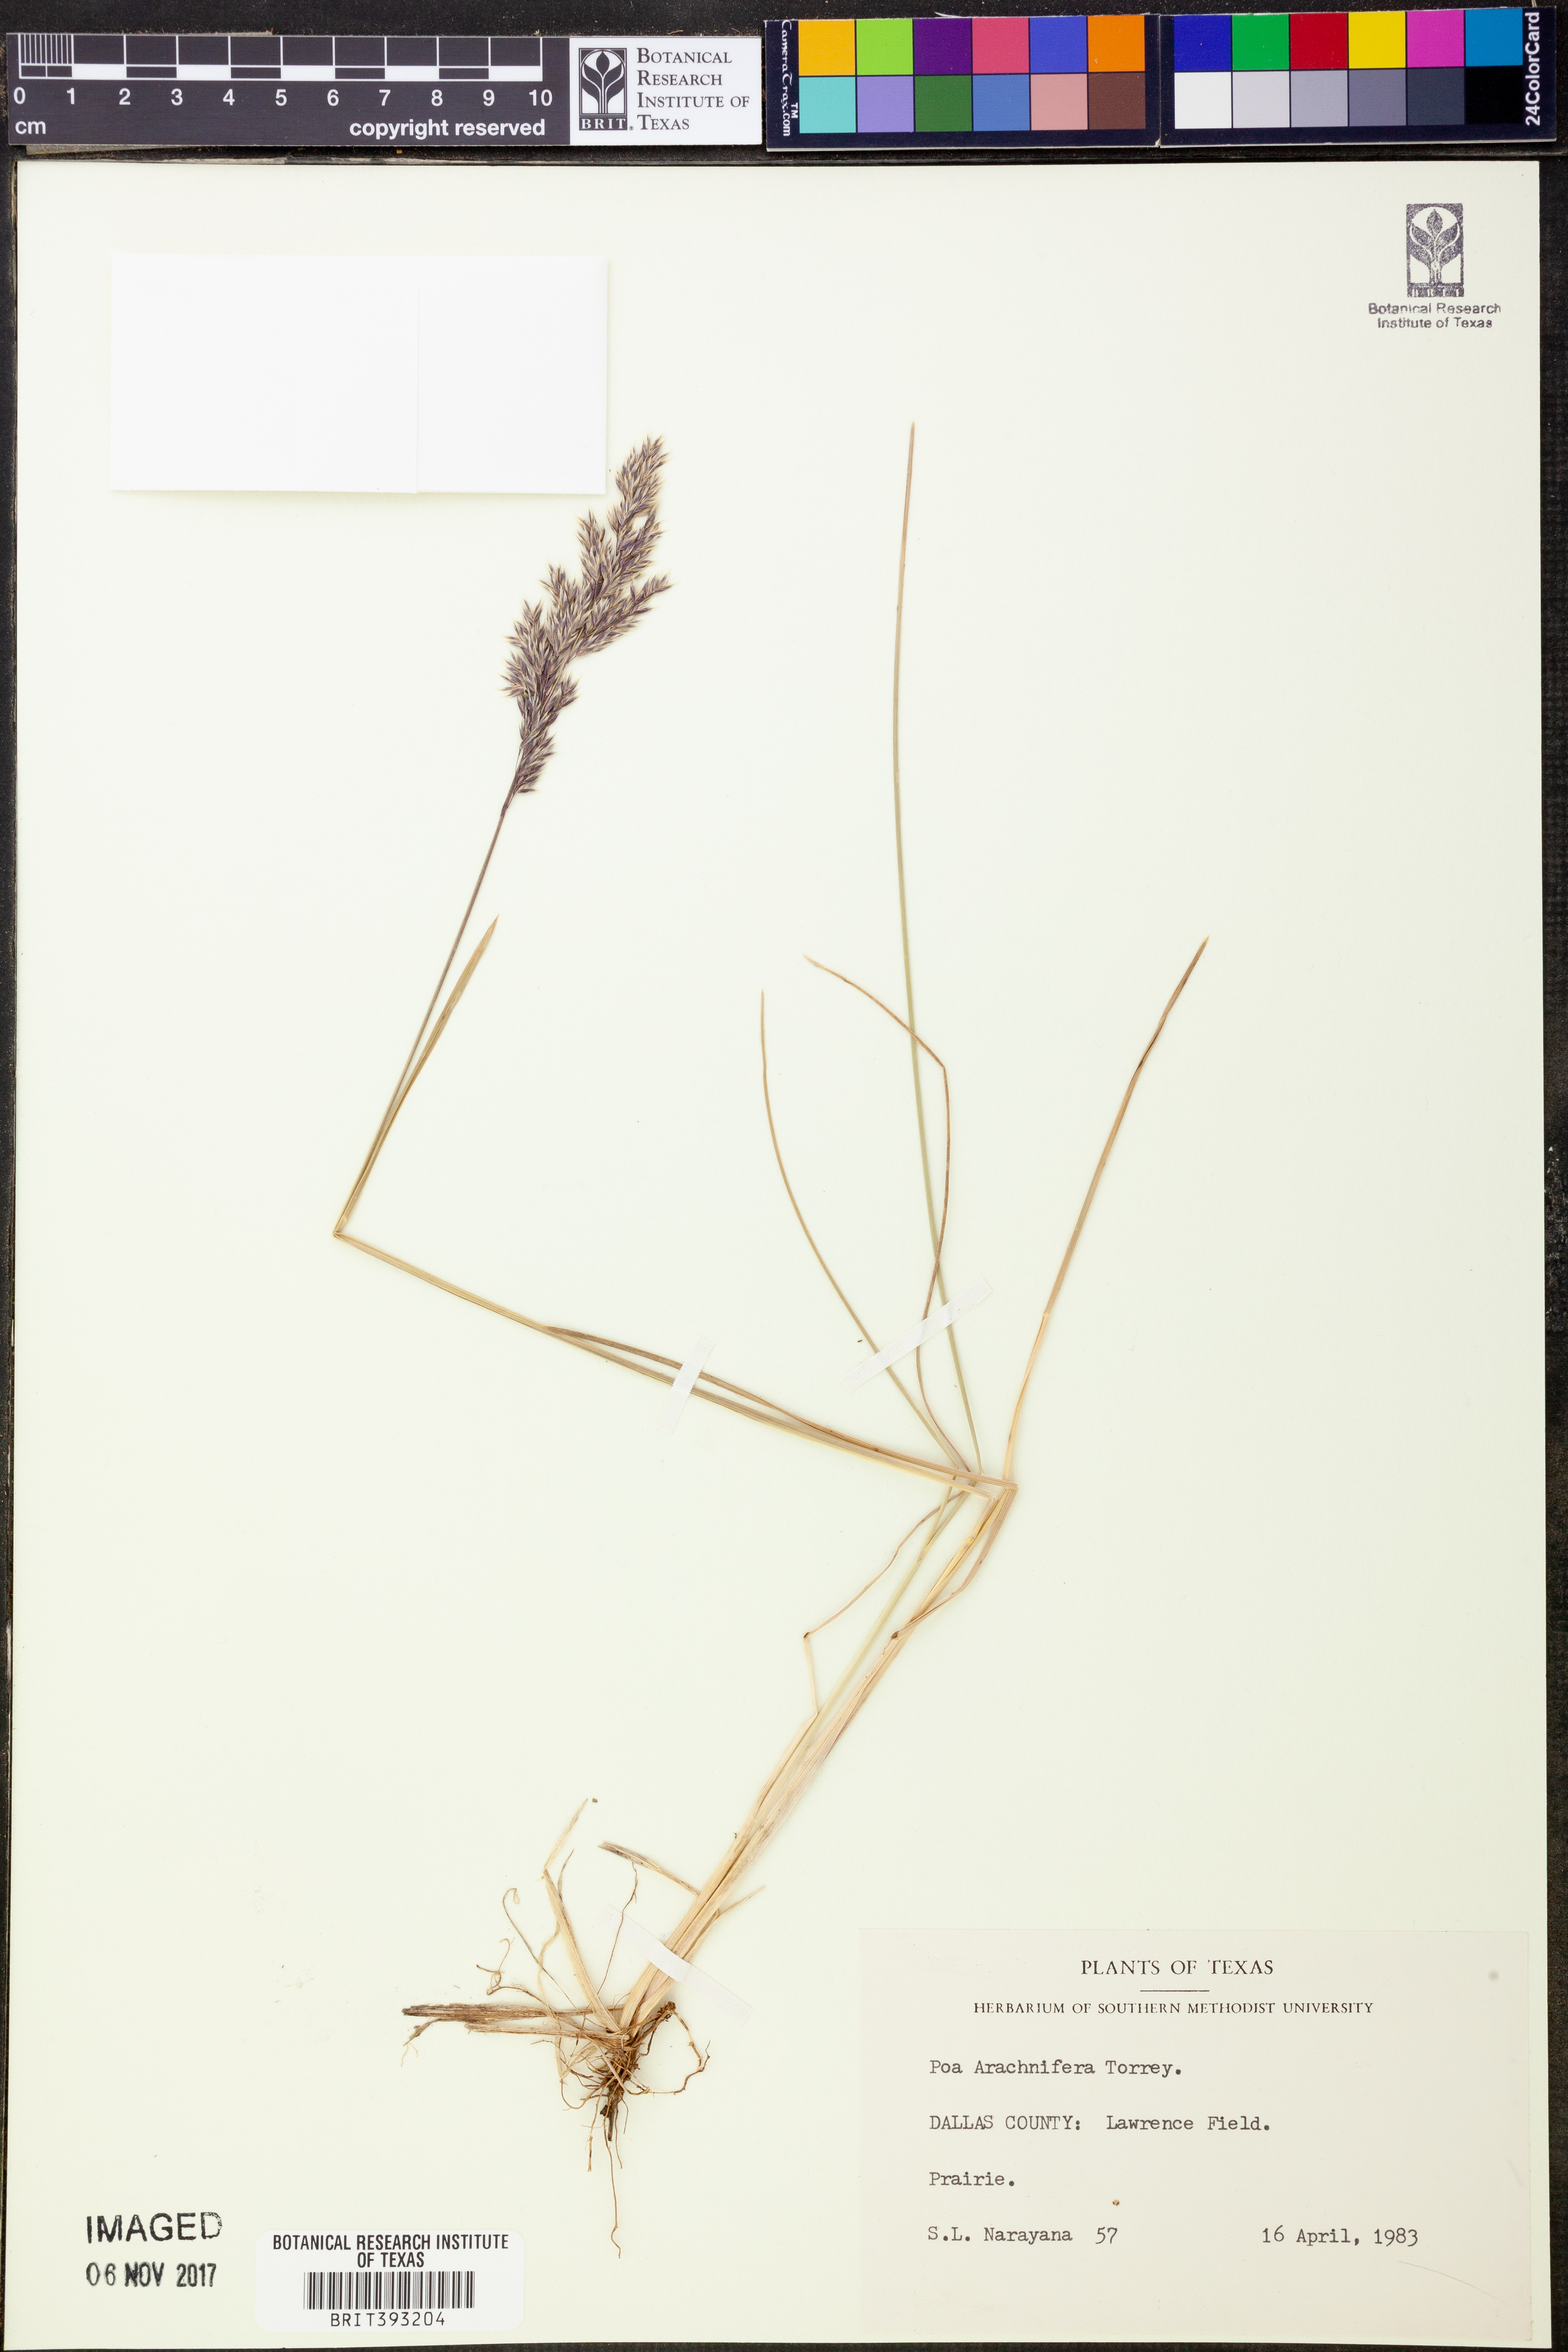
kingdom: Plantae
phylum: Tracheophyta
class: Liliopsida
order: Poales
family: Poaceae
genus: Poa
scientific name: Poa arachnifera
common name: Texas bluegrass
